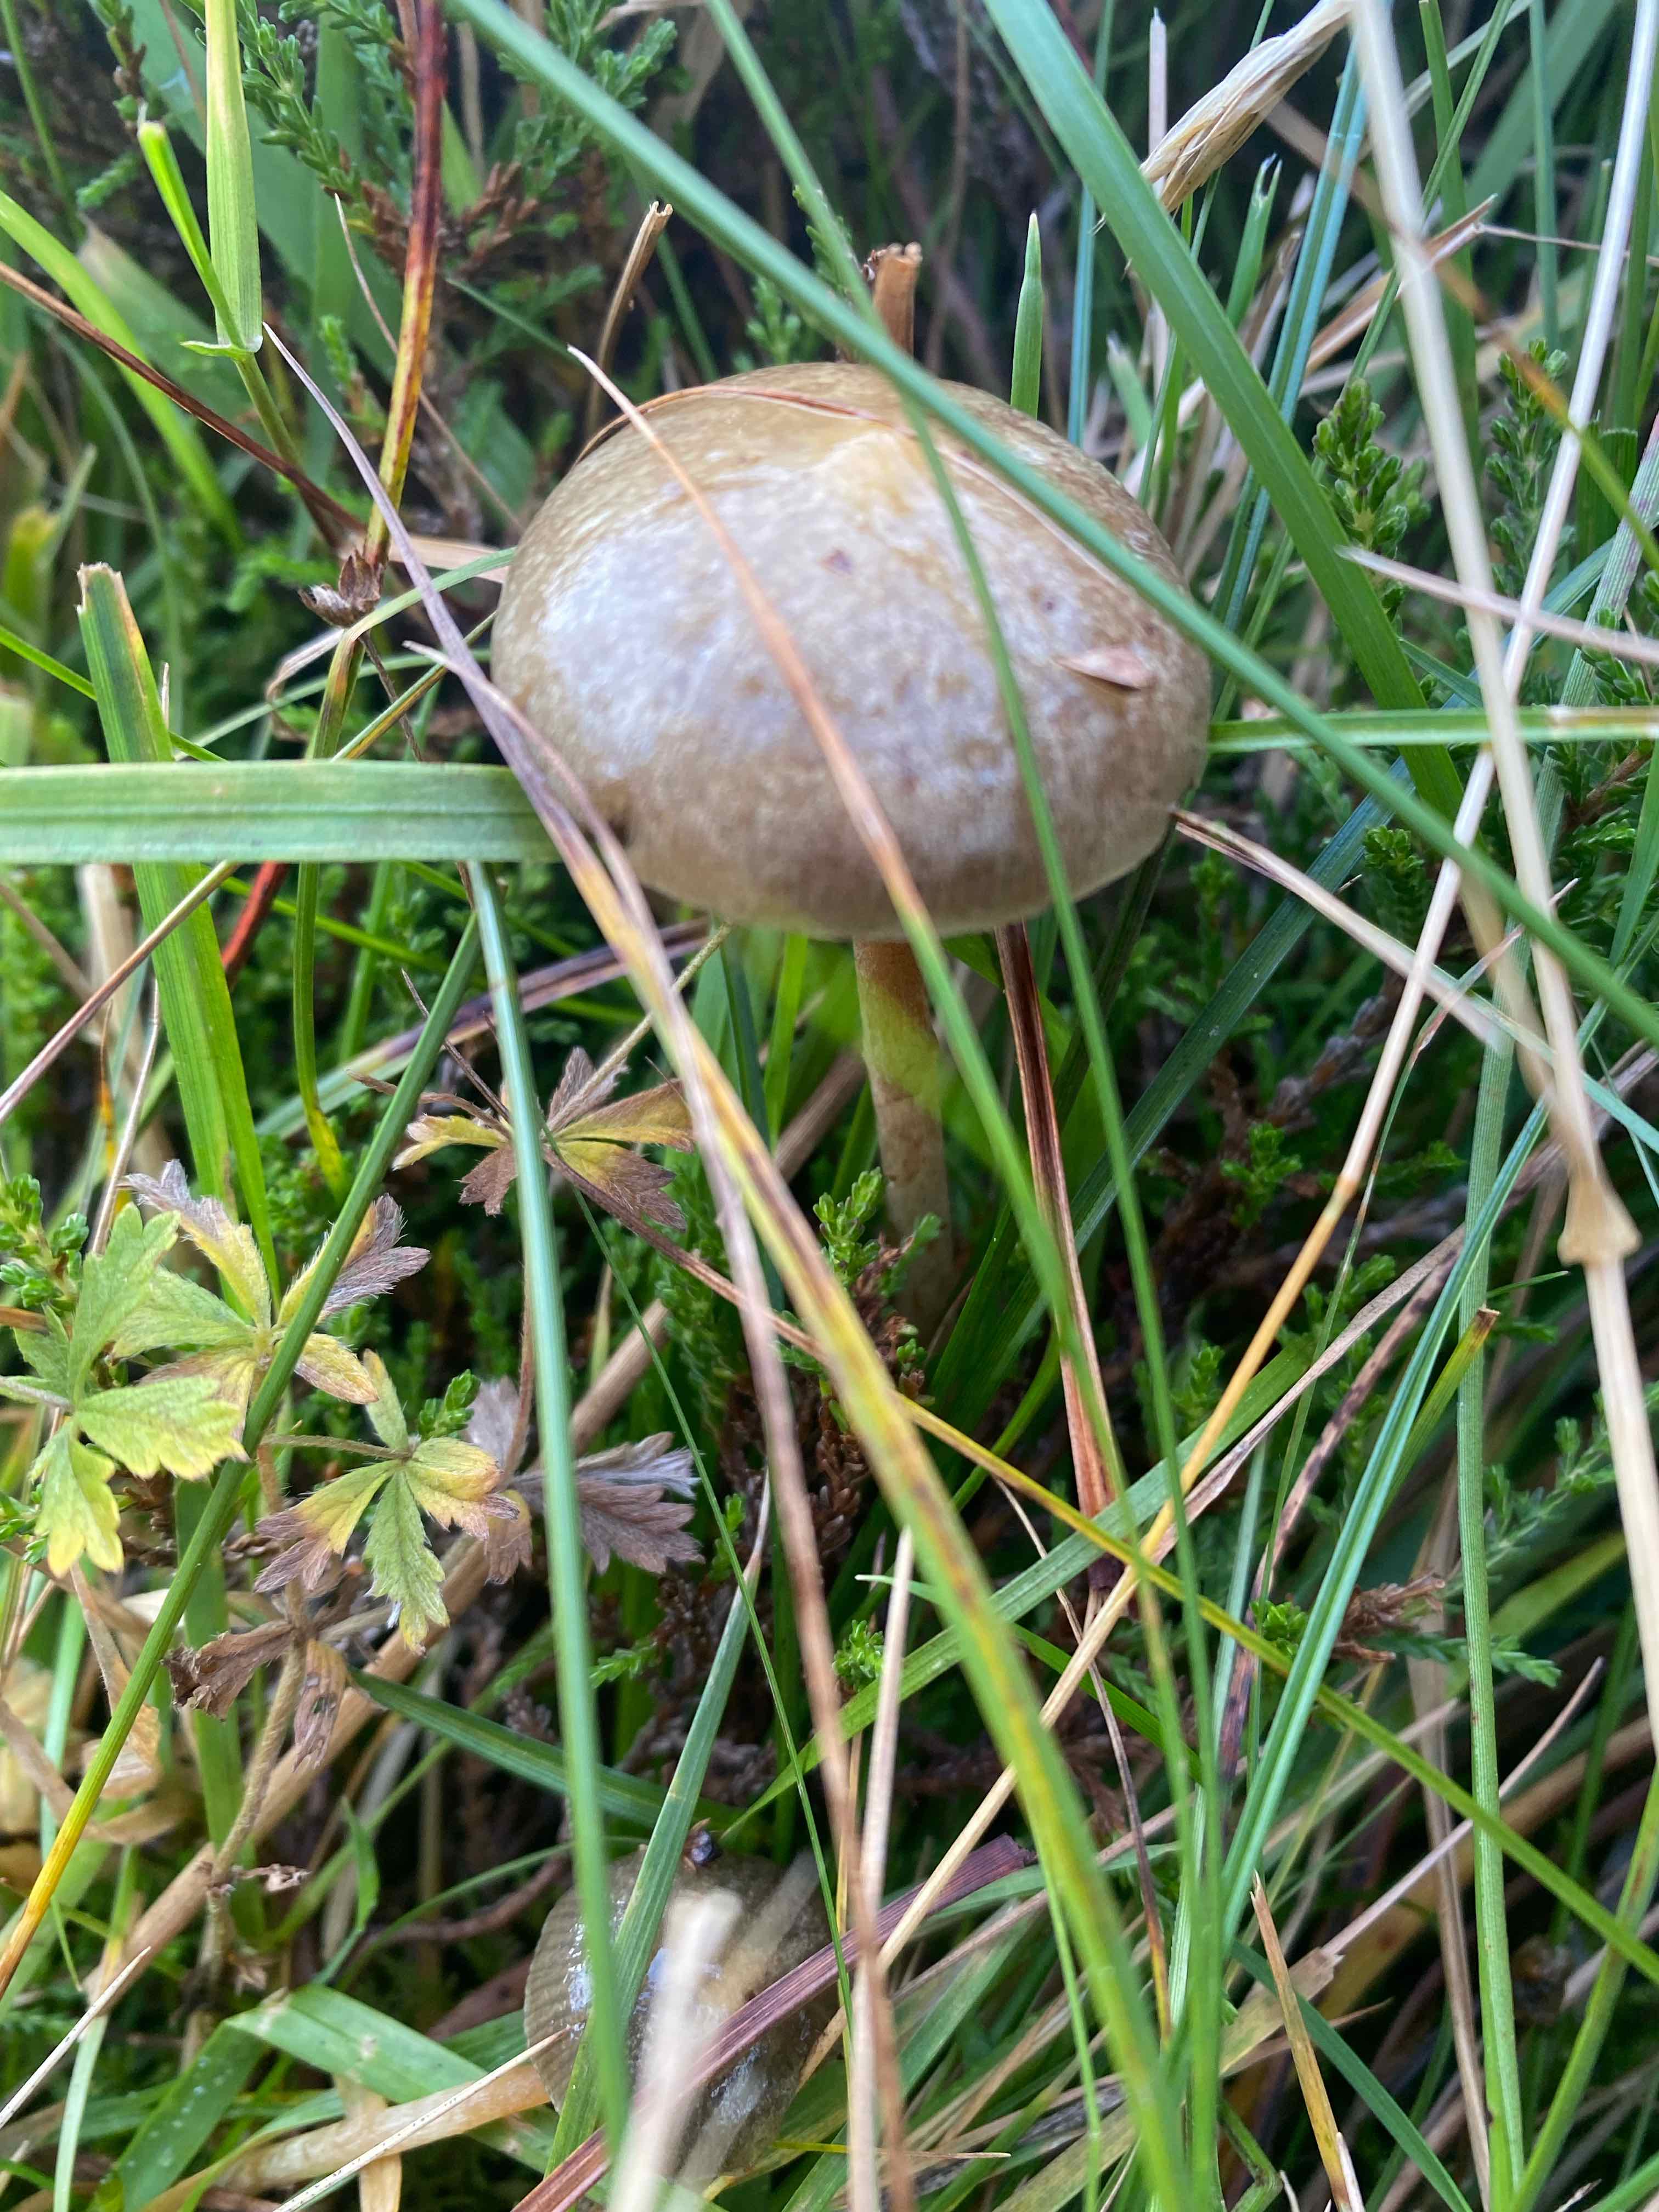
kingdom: Fungi
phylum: Basidiomycota
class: Agaricomycetes
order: Agaricales
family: Strophariaceae
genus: Protostropharia
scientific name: Protostropharia
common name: bredblad
